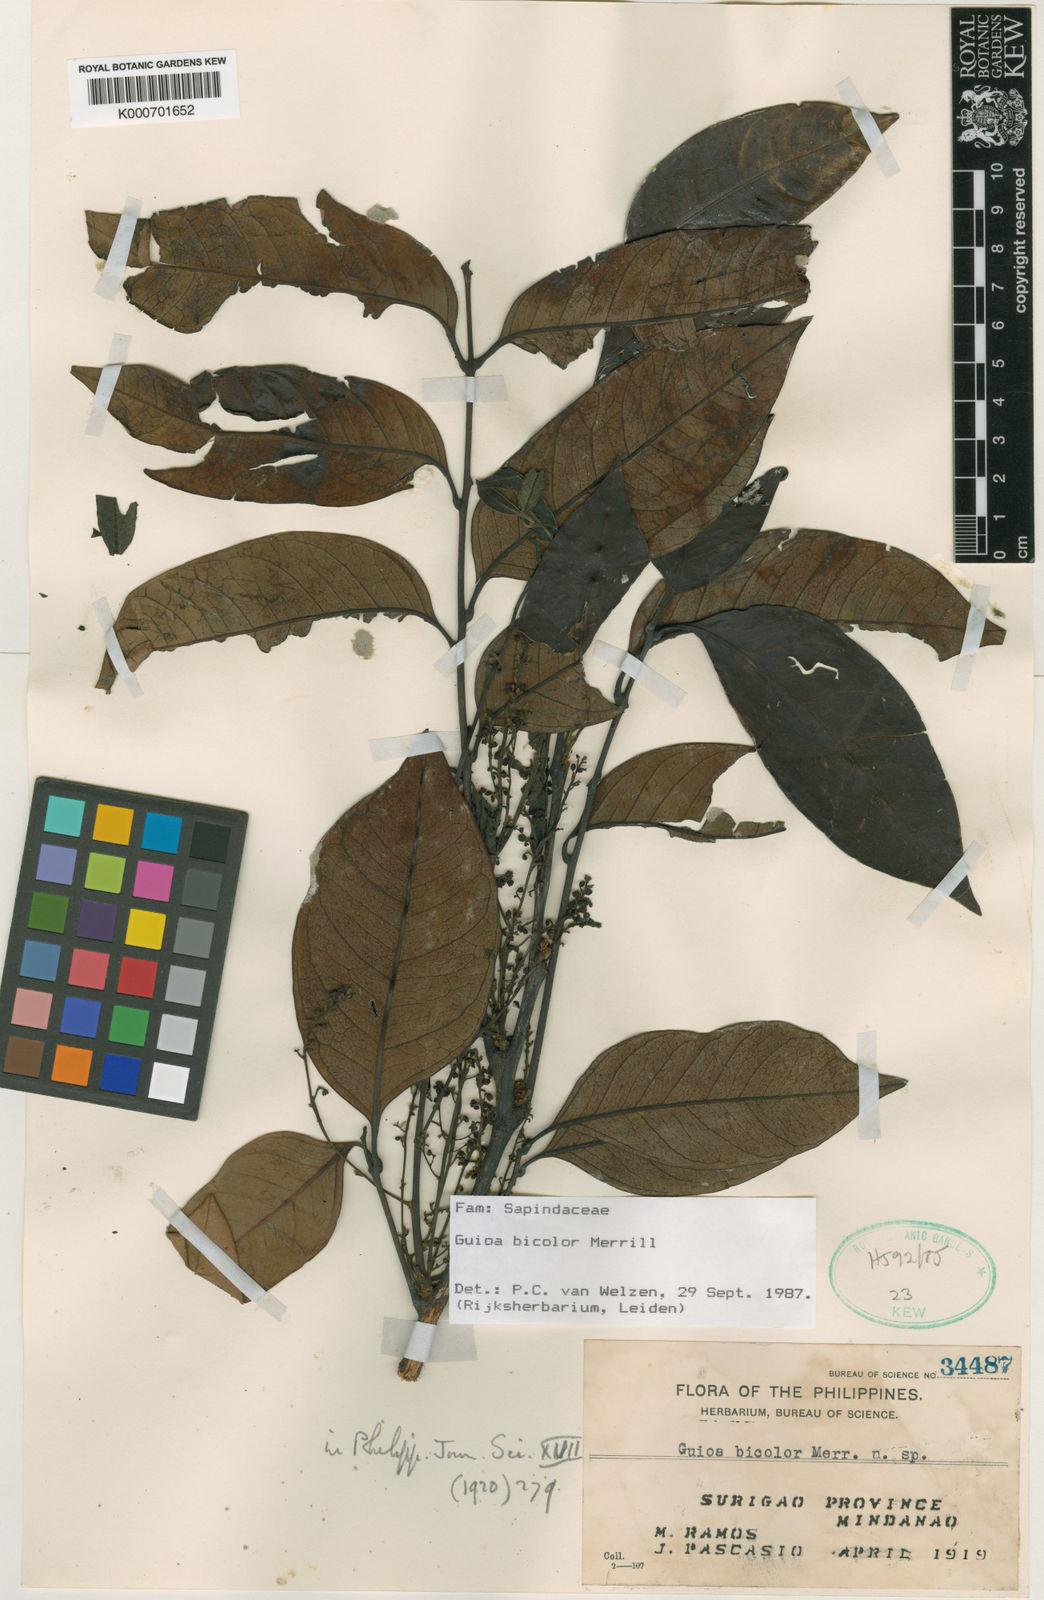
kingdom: Plantae
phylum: Tracheophyta
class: Magnoliopsida
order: Sapindales
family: Sapindaceae
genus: Guioa
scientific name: Guioa bicolor
